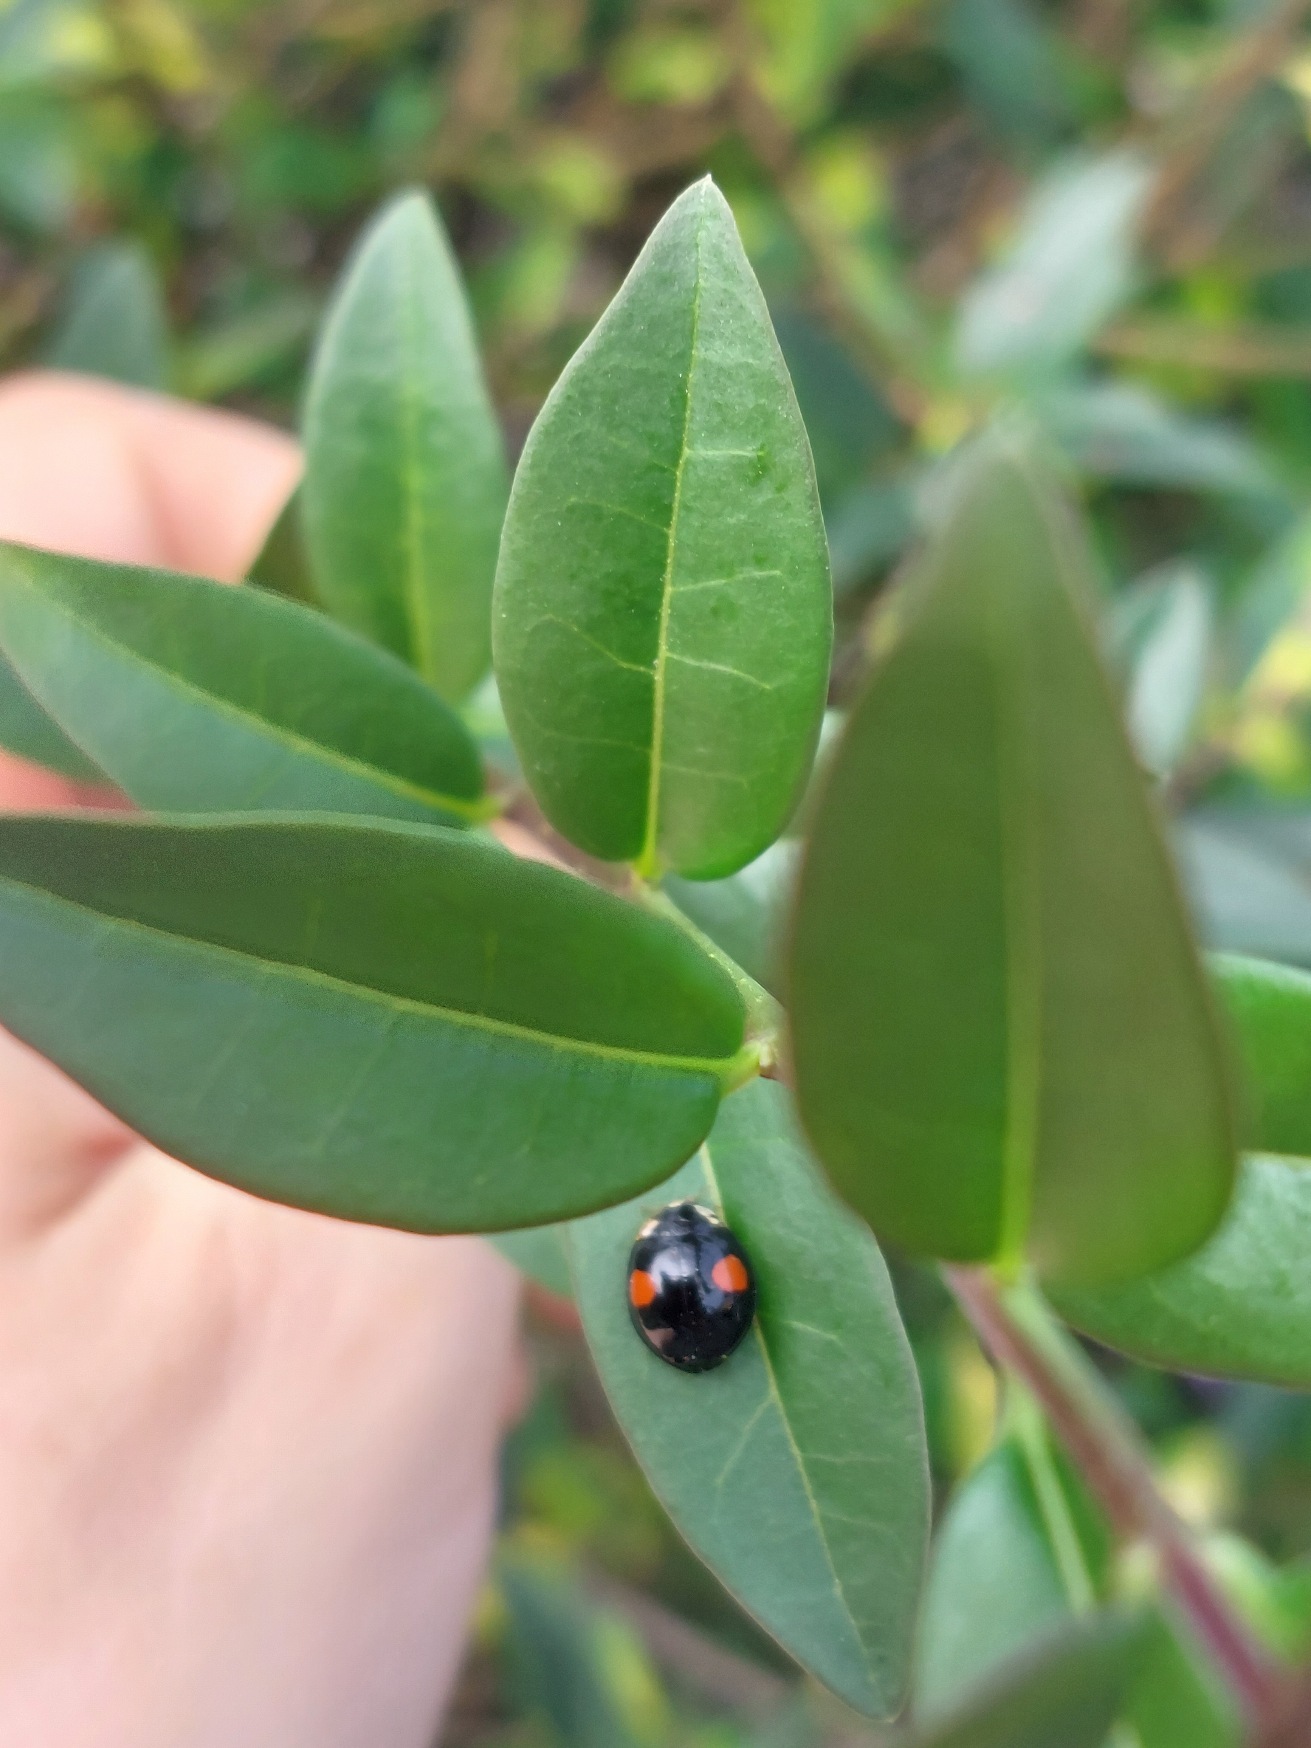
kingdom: Animalia
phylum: Arthropoda
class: Insecta
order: Coleoptera
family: Coccinellidae
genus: Harmonia
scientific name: Harmonia axyridis
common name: Harlekinmariehøne
